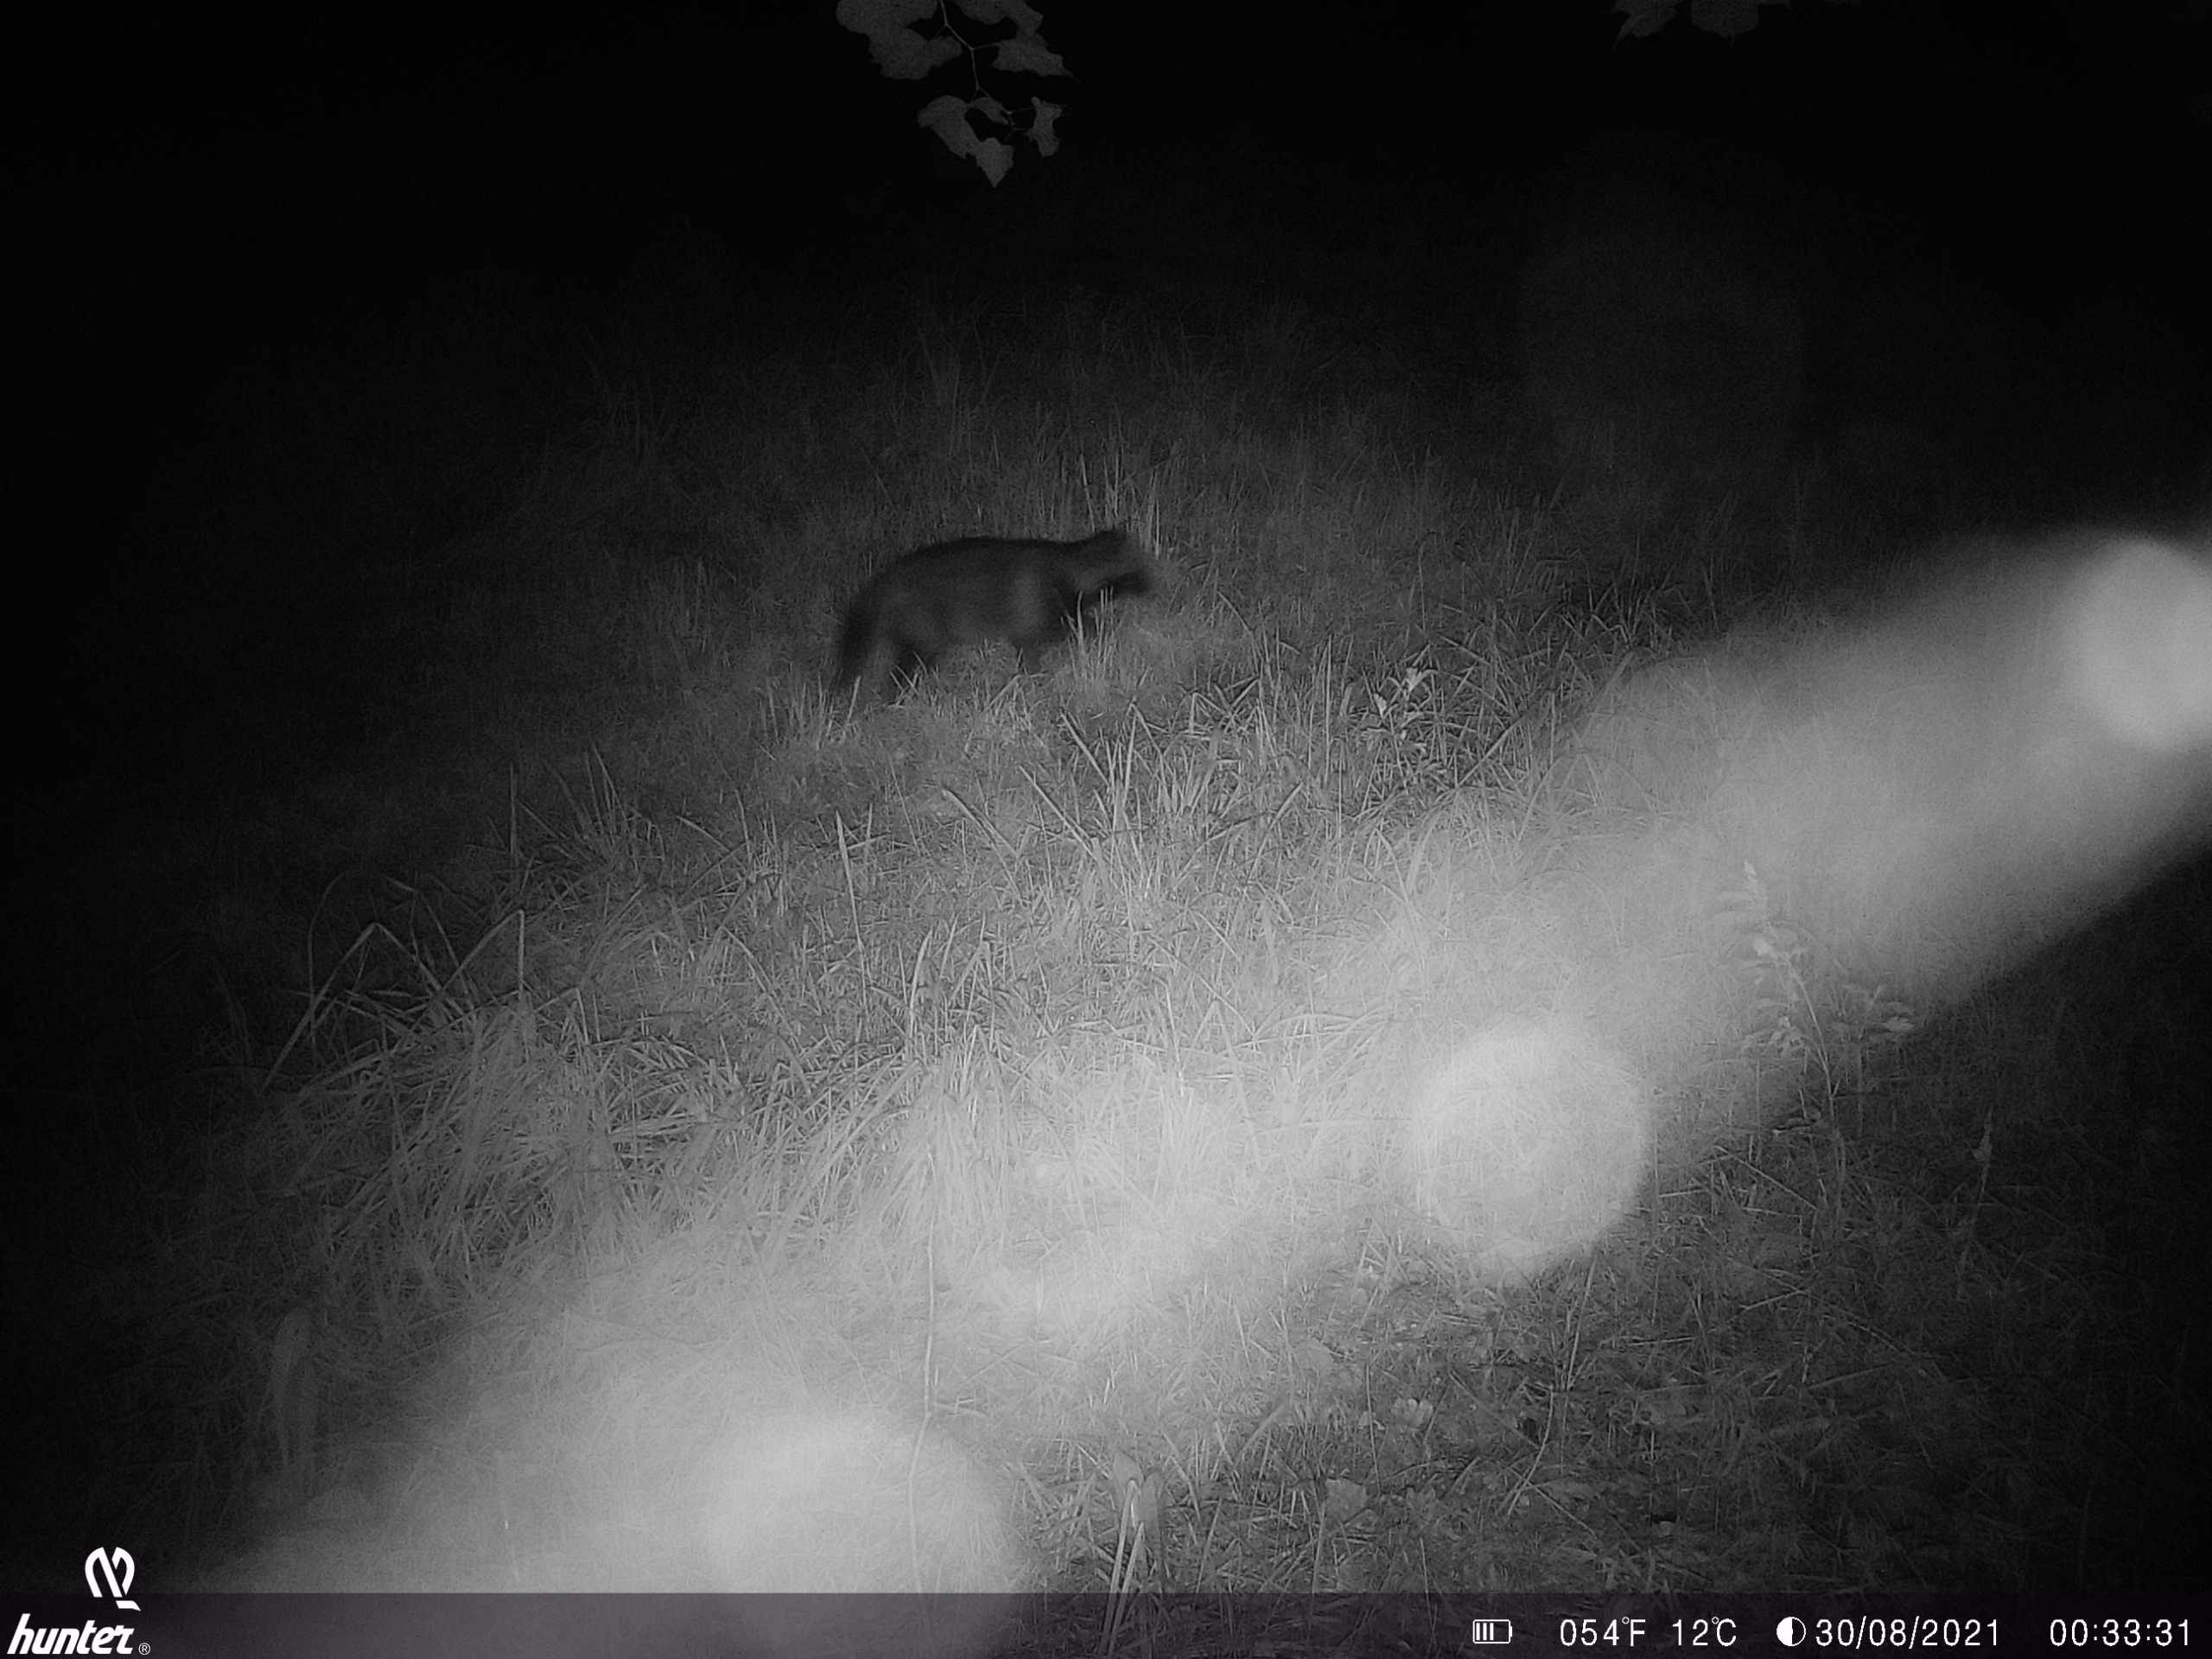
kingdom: Animalia
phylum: Chordata
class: Mammalia
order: Carnivora
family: Canidae
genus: Nyctereutes
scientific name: Nyctereutes procyonoides
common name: Mårhund
